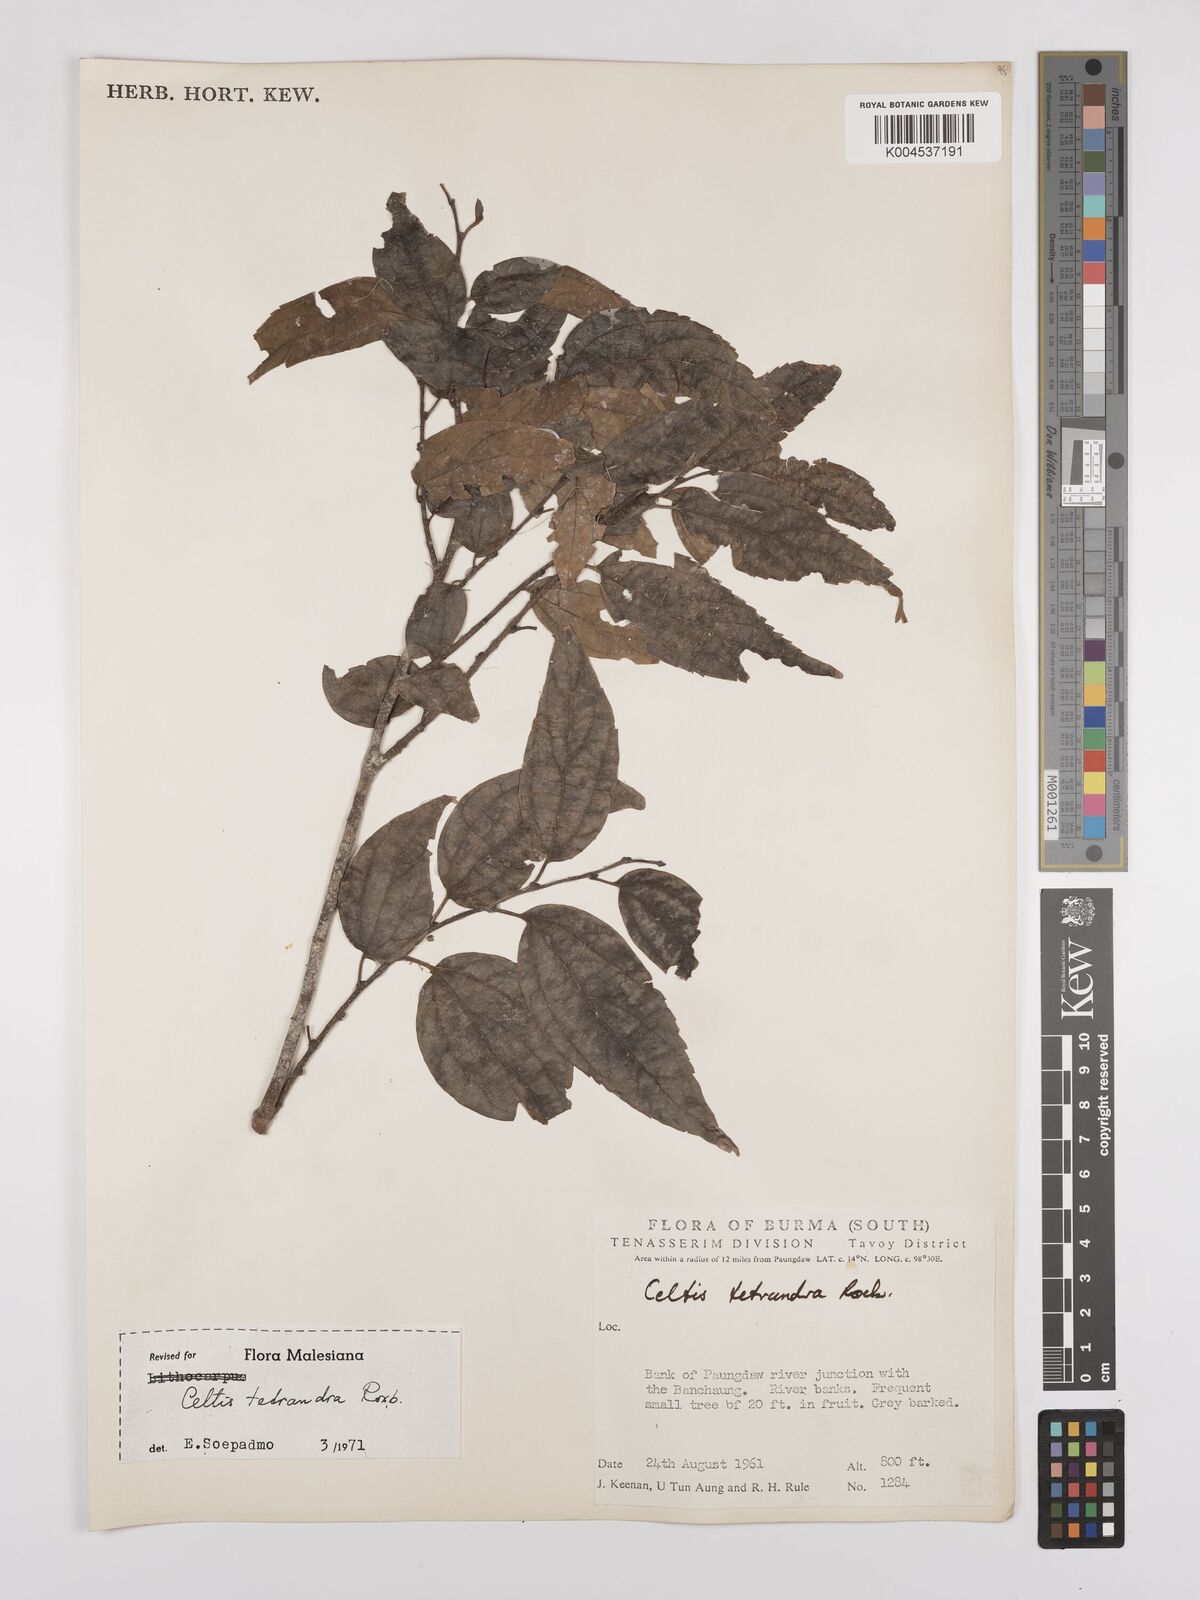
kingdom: Plantae
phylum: Tracheophyta
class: Magnoliopsida
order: Rosales
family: Cannabaceae
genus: Celtis
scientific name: Celtis tetrandra
